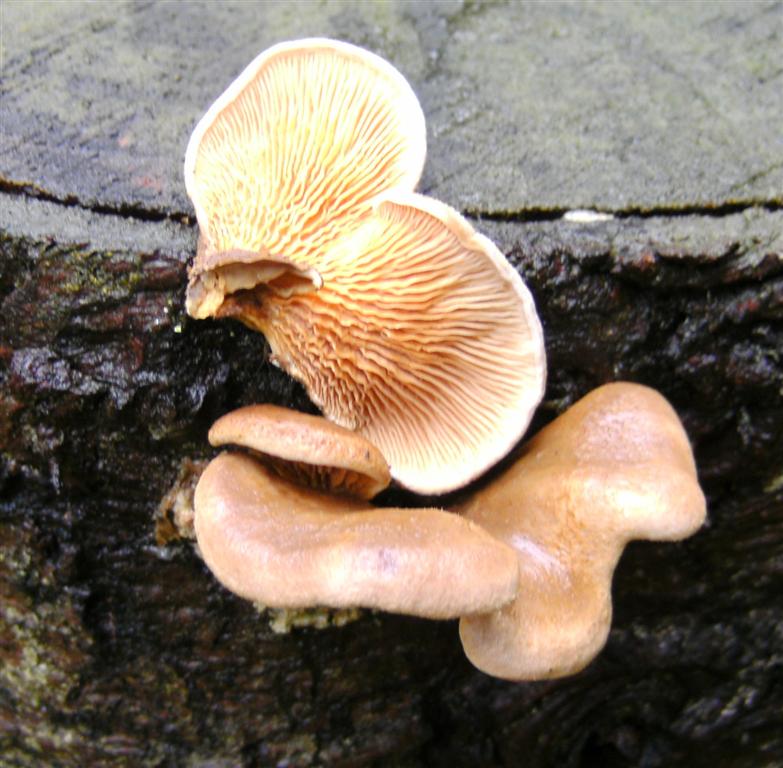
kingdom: Fungi
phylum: Basidiomycota
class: Agaricomycetes
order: Boletales
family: Tapinellaceae
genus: Tapinella
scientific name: Tapinella panuoides
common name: tømmer-viftesvamp
